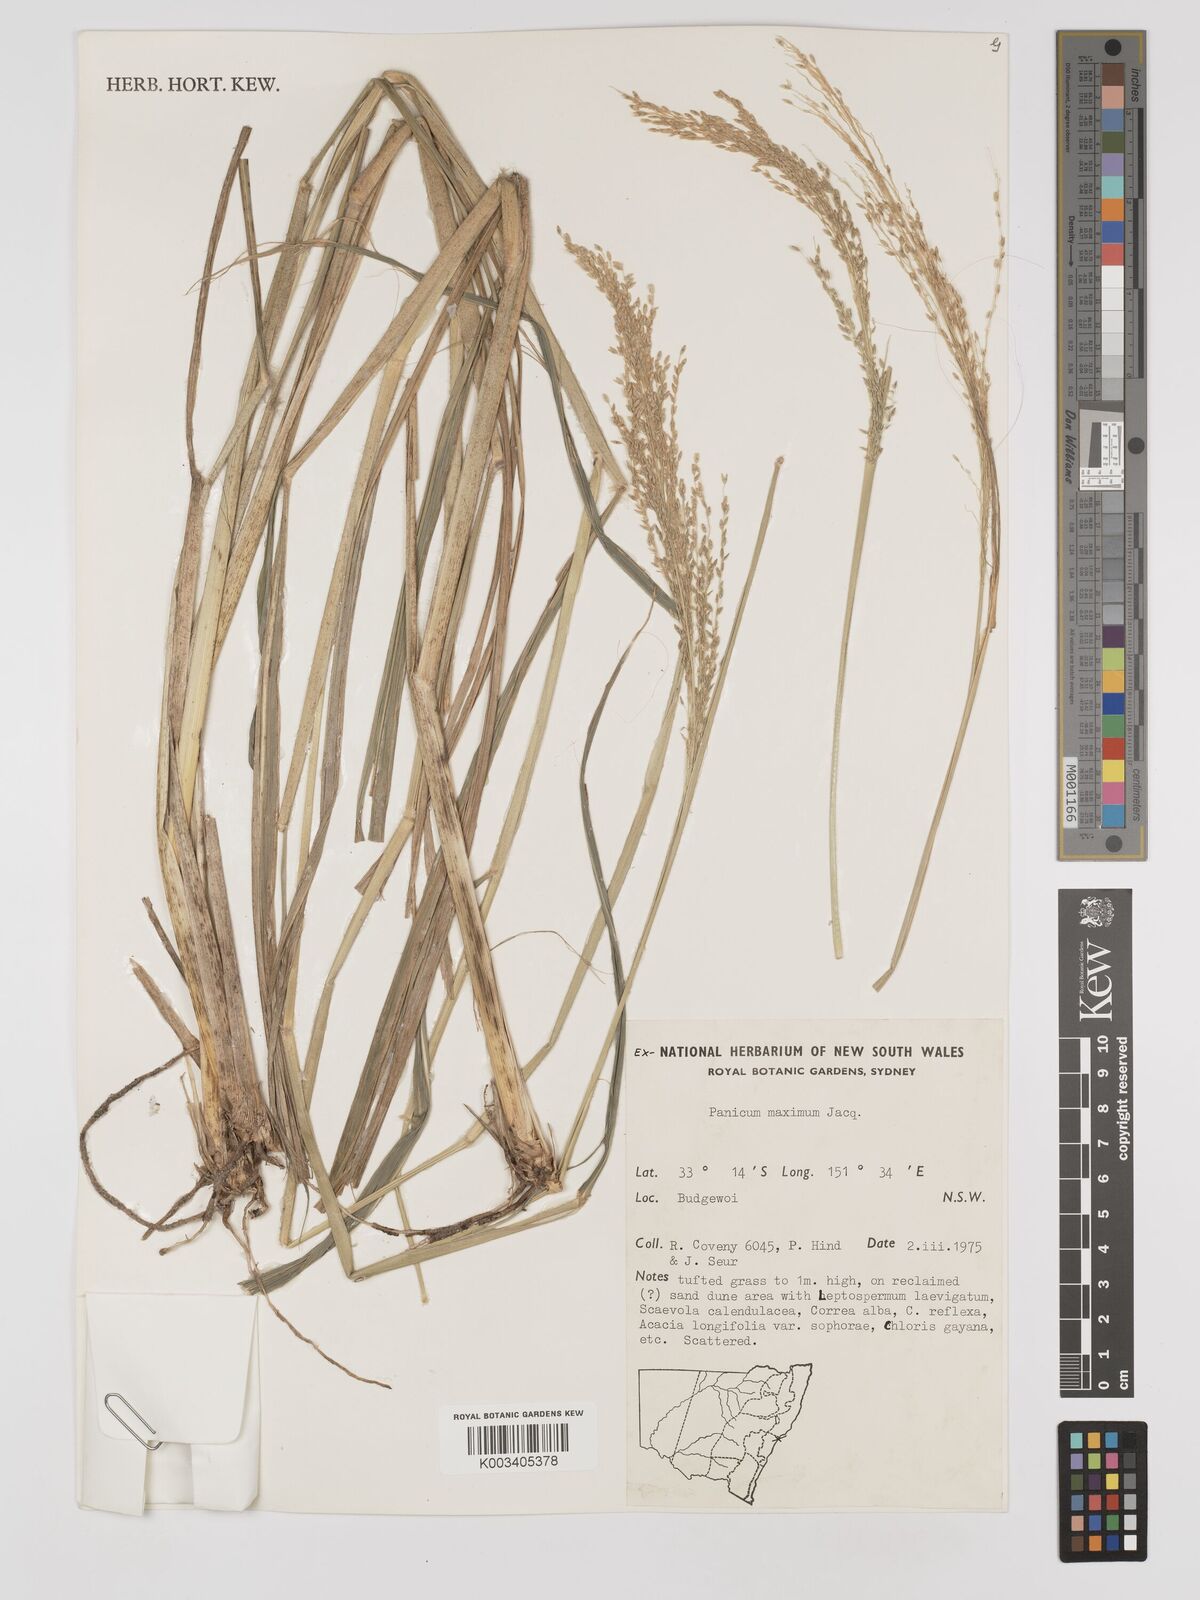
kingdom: Plantae
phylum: Tracheophyta
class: Liliopsida
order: Poales
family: Poaceae
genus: Megathyrsus
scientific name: Megathyrsus maximus
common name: Guineagrass
